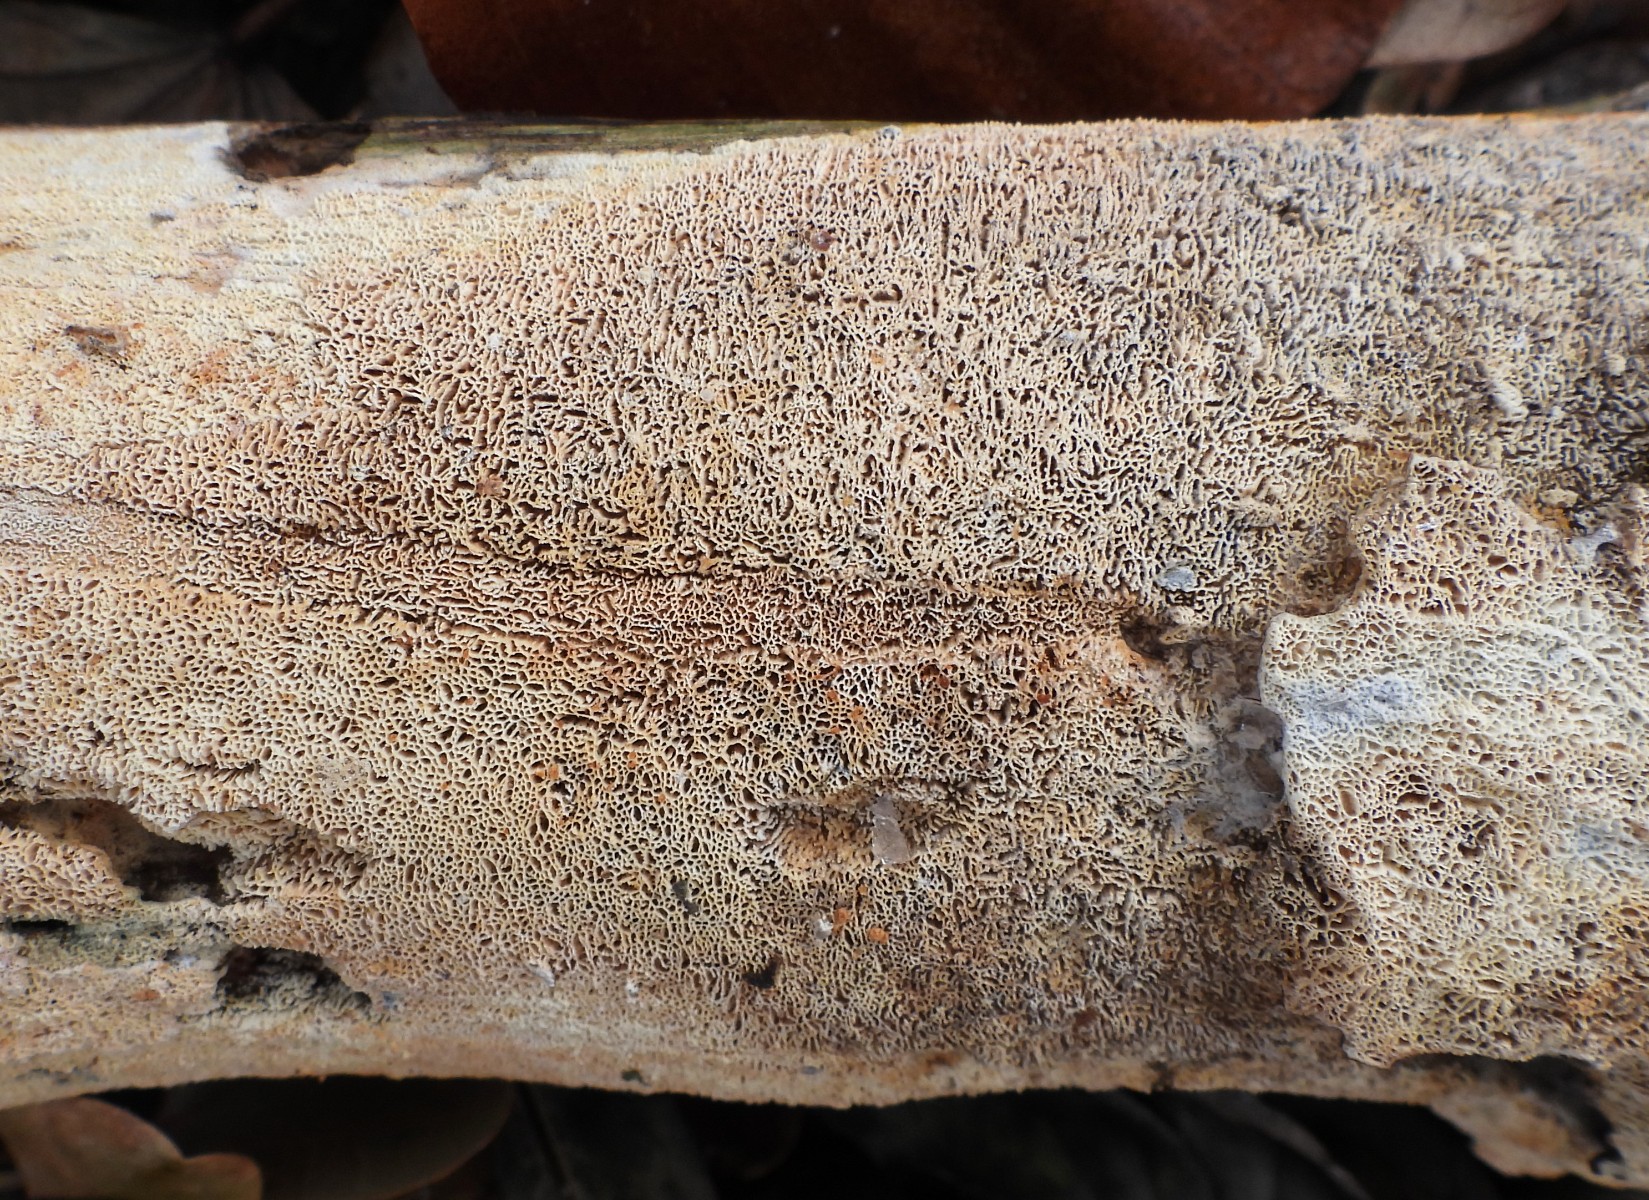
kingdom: Fungi
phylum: Basidiomycota
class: Agaricomycetes
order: Hymenochaetales
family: Schizoporaceae
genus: Xylodon
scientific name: Xylodon subtropicus
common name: labyrint-tandsvamp
